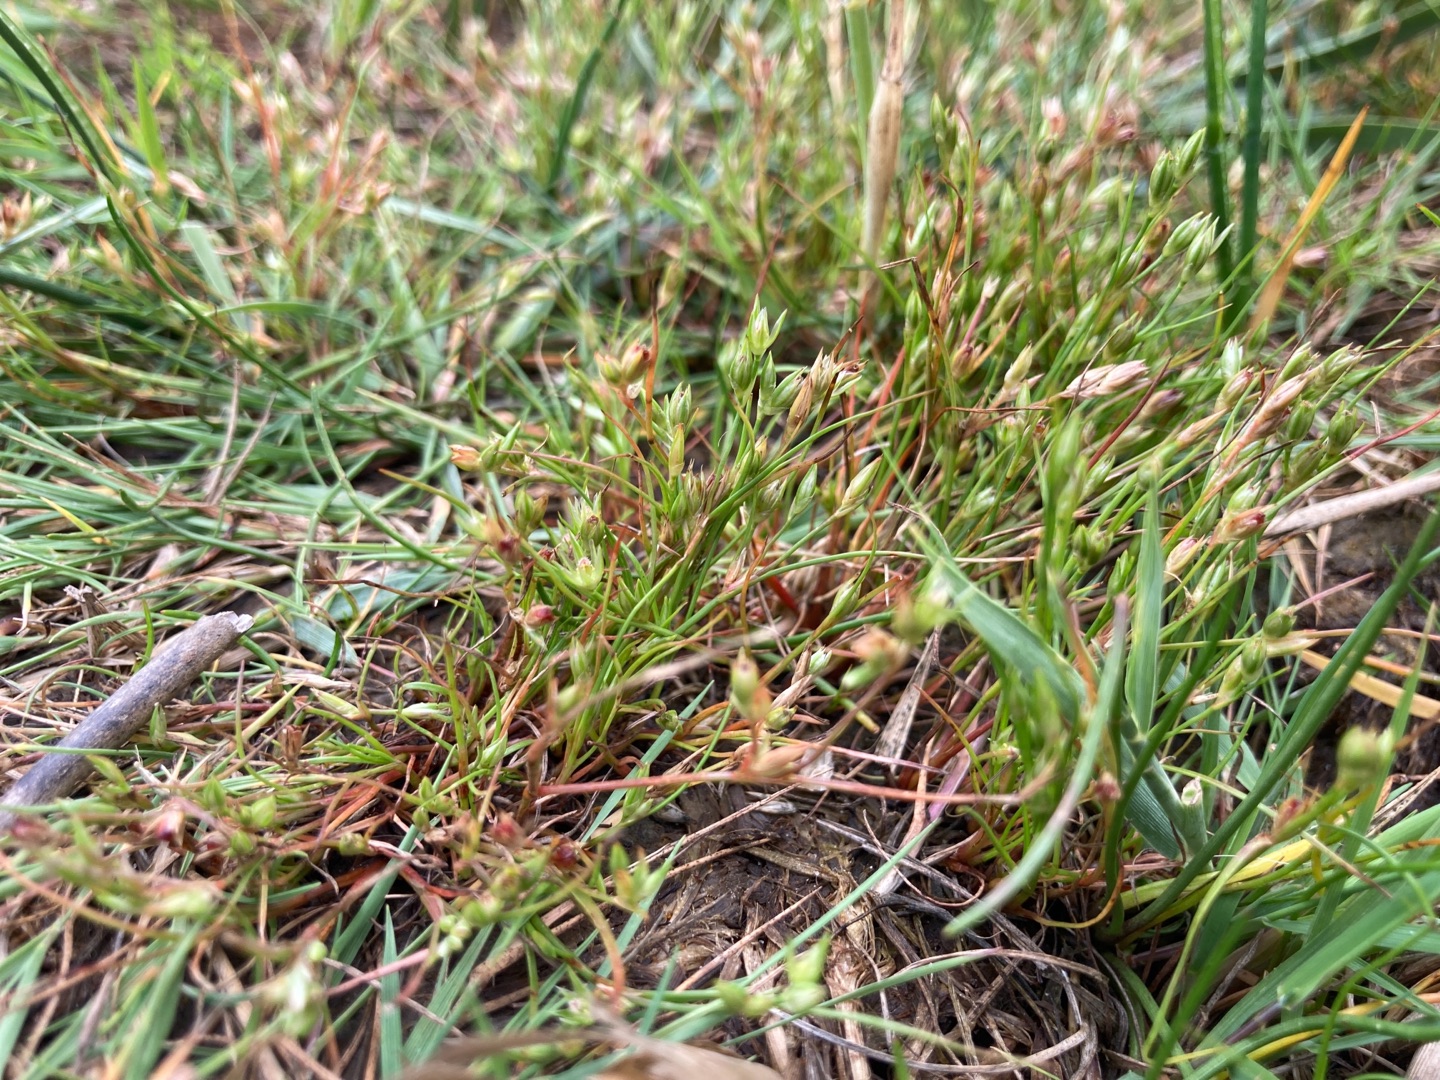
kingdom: Plantae
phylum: Tracheophyta
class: Liliopsida
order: Poales
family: Juncaceae
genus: Juncus
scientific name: Juncus ranarius
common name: Klæg-siv
